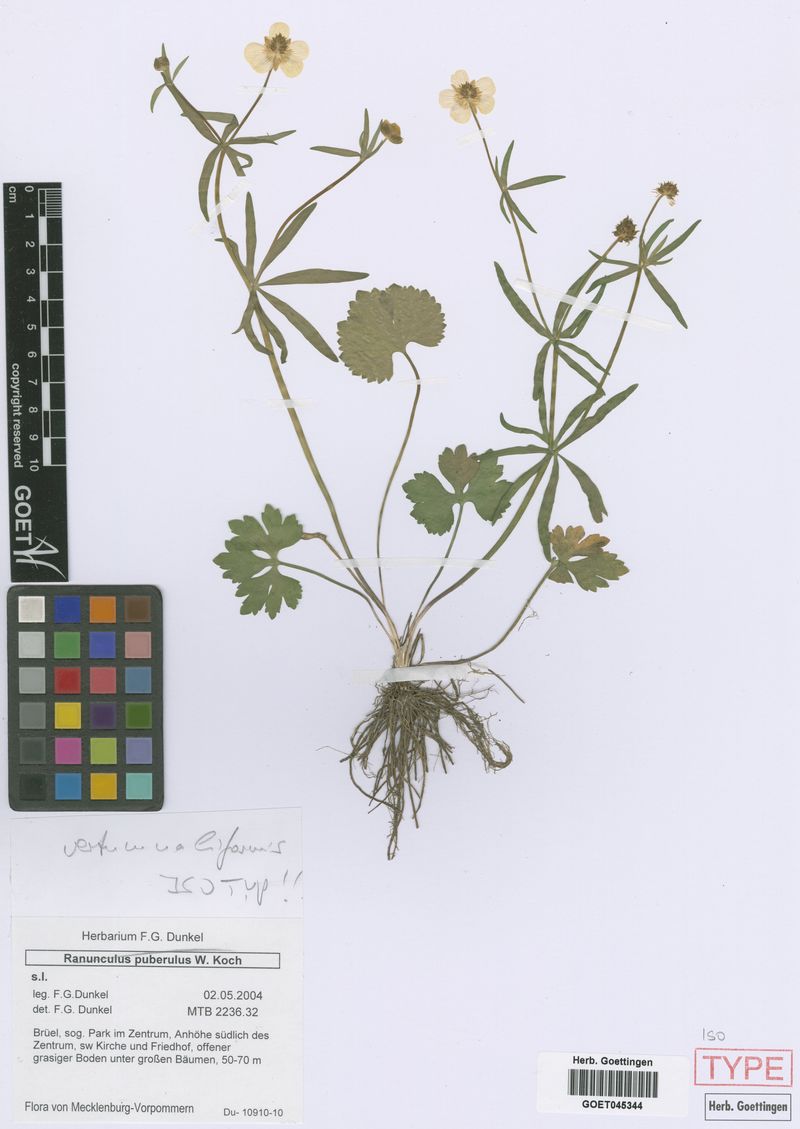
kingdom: Plantae
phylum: Tracheophyta
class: Magnoliopsida
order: Ranunculales
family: Ranunculaceae
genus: Ranunculus
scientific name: Ranunculus vertumnaliformis
